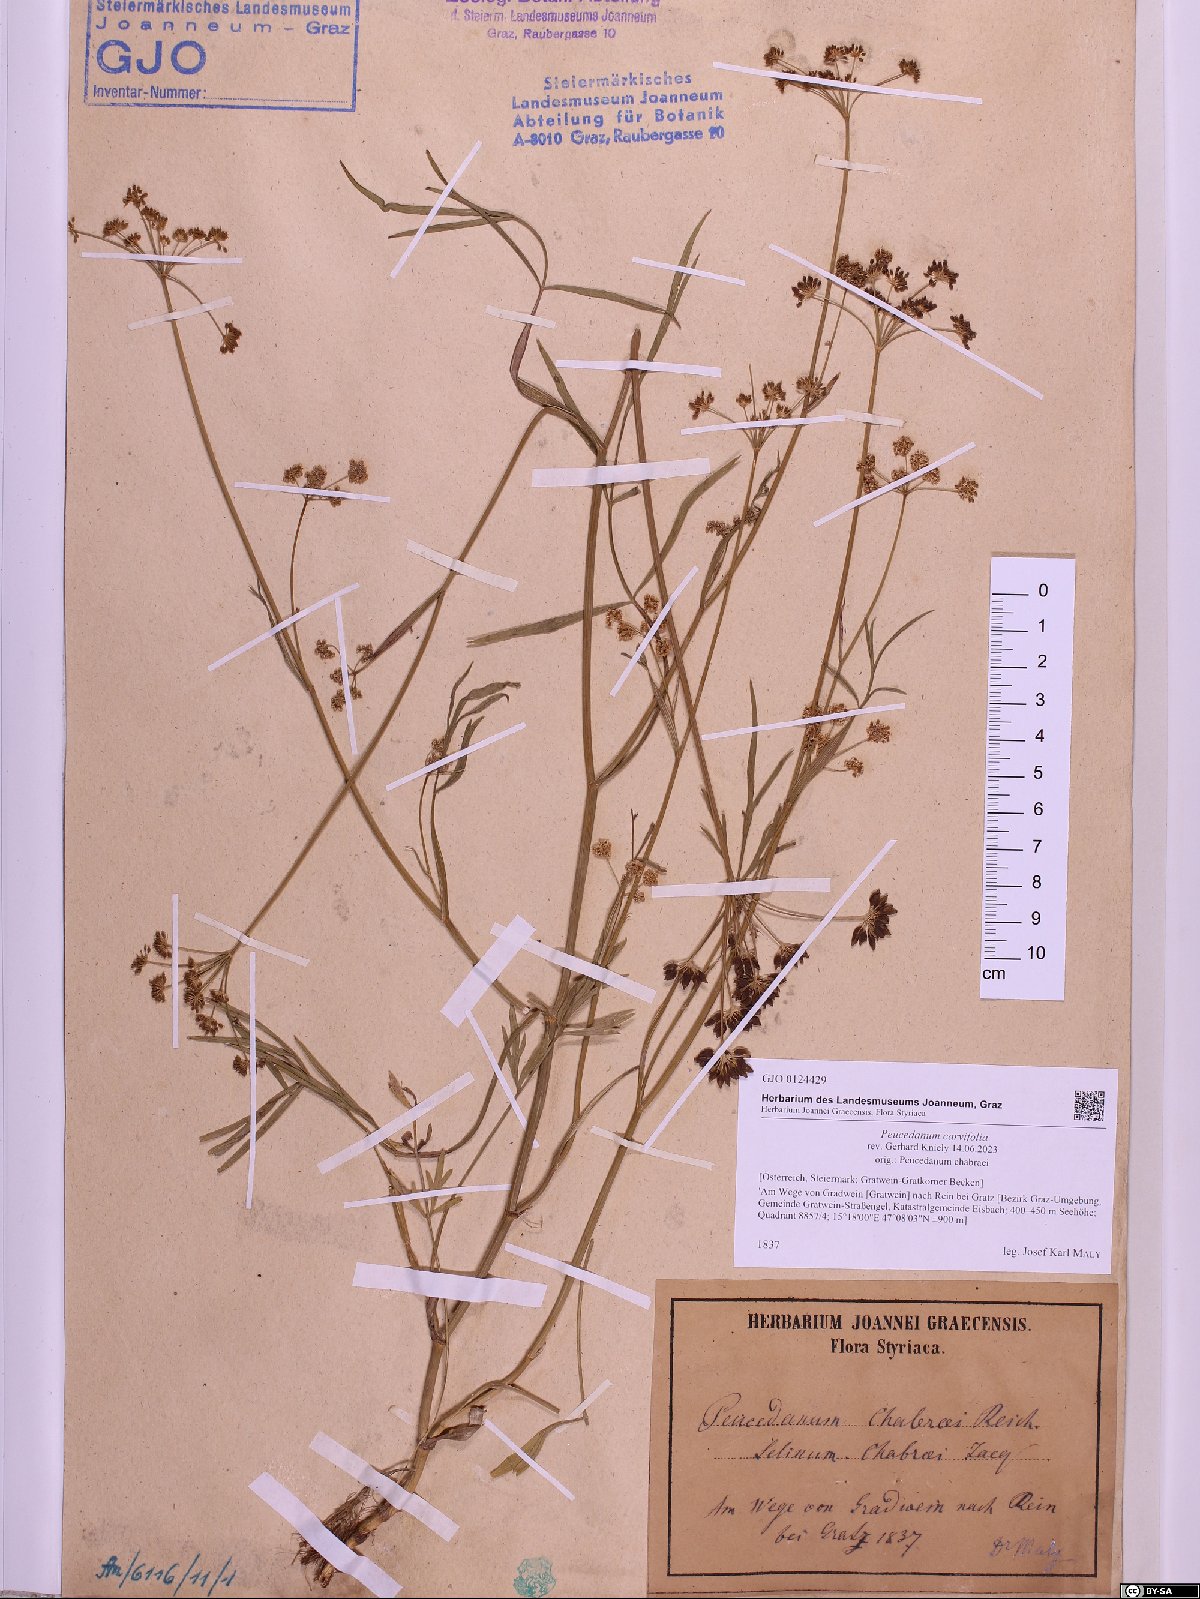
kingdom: Plantae
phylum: Tracheophyta
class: Magnoliopsida
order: Apiales
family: Apiaceae
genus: Dichoropetalum
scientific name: Dichoropetalum carvifolia
